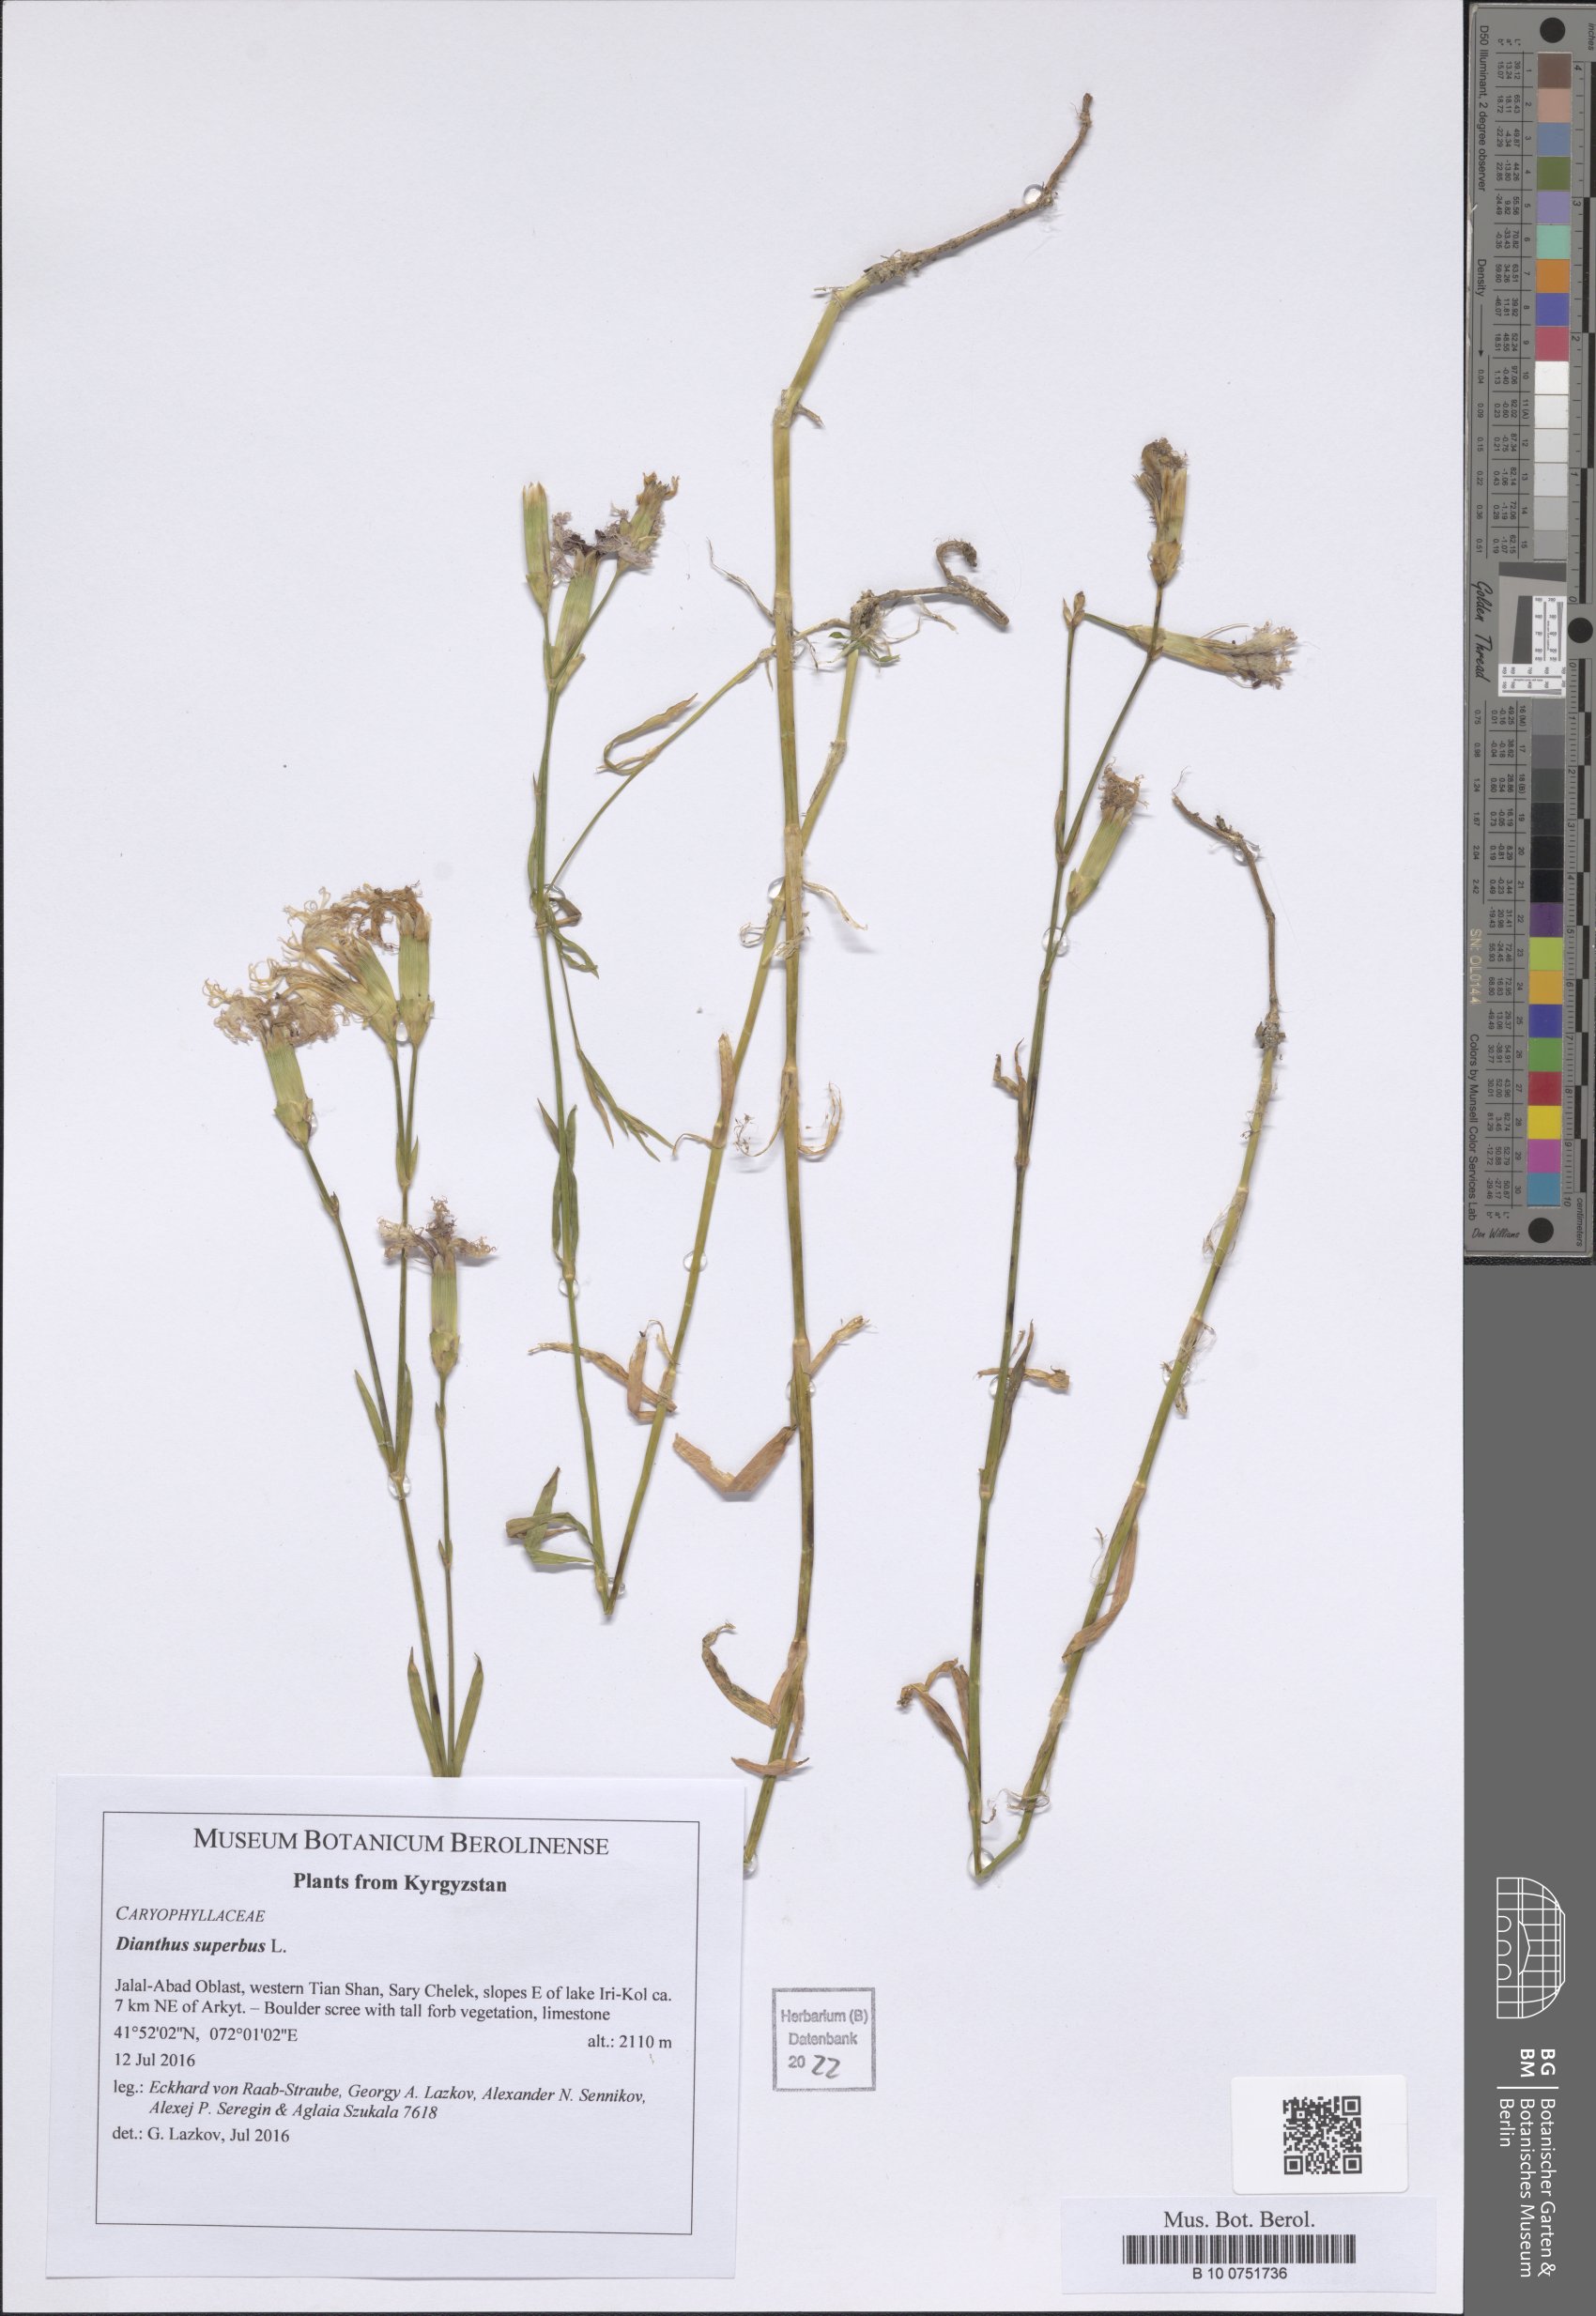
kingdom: Plantae
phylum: Tracheophyta
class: Magnoliopsida
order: Caryophyllales
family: Caryophyllaceae
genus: Dianthus
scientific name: Dianthus superbus
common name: Fringed pink
